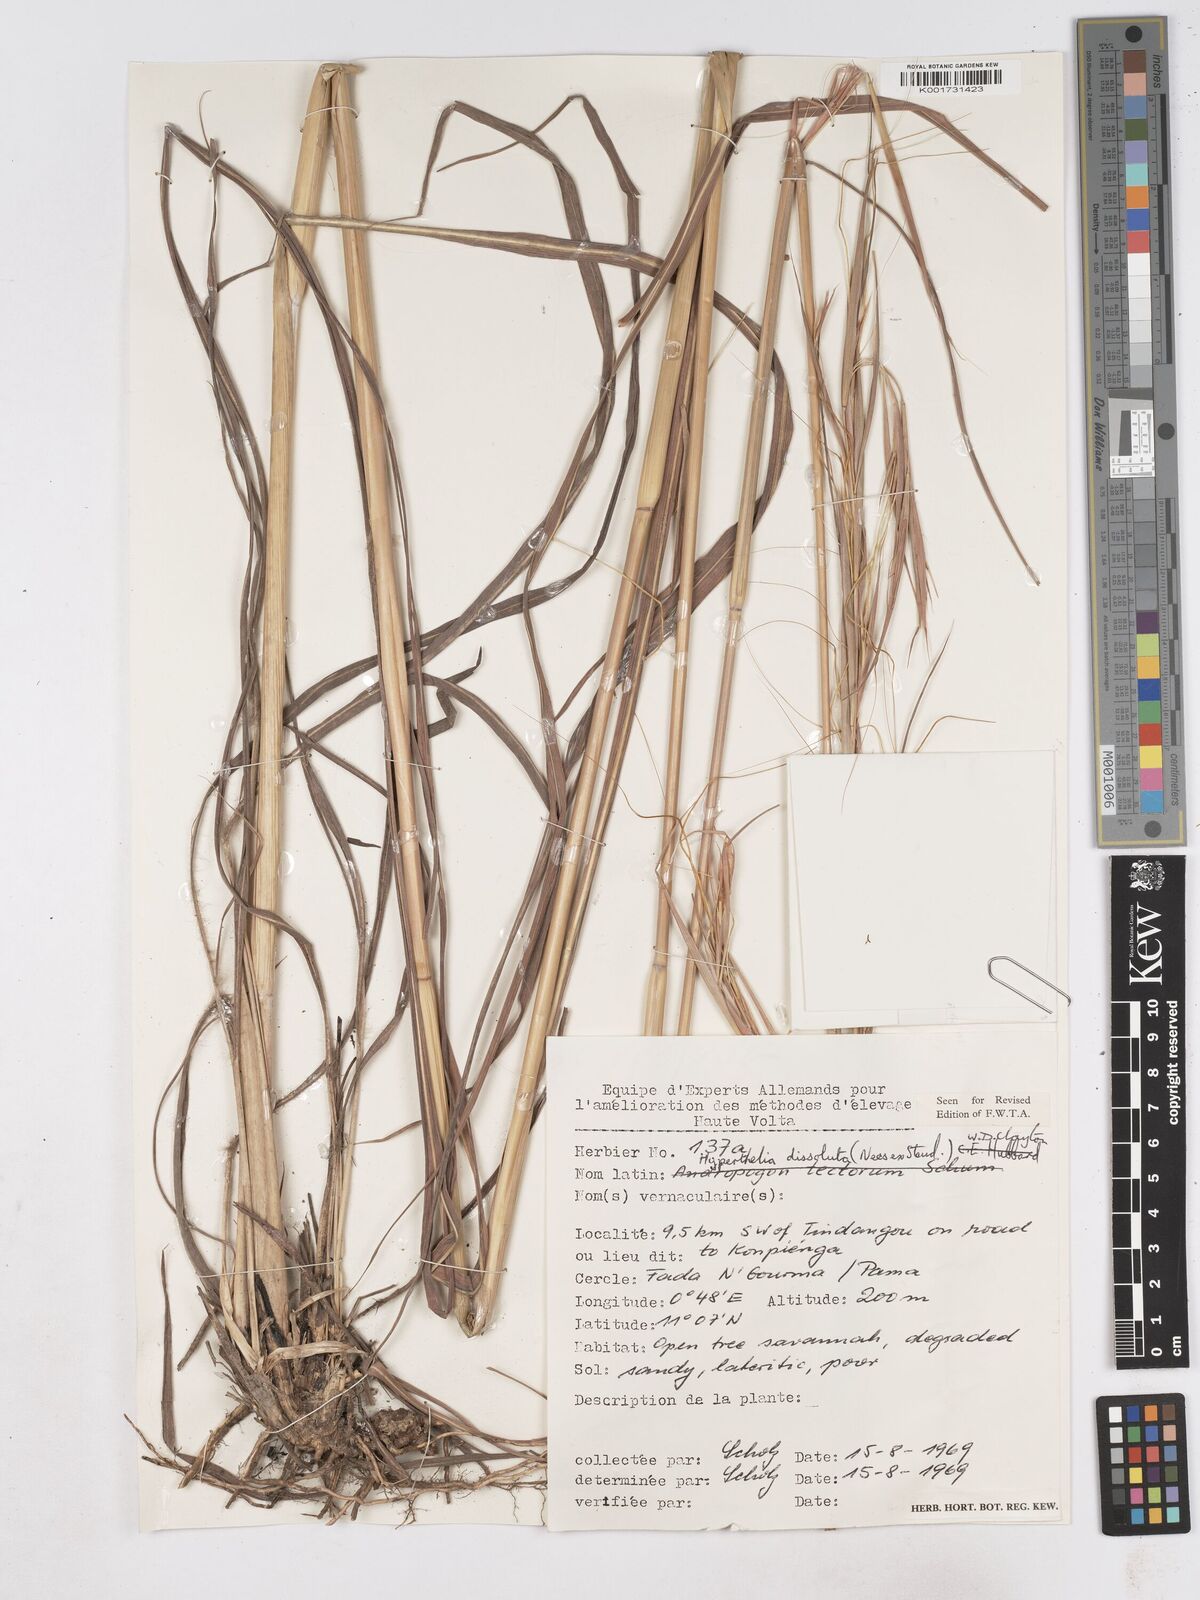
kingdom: Plantae
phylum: Tracheophyta
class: Liliopsida
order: Poales
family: Poaceae
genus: Hyperthelia
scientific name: Hyperthelia dissoluta
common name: Yellow thatching grass
